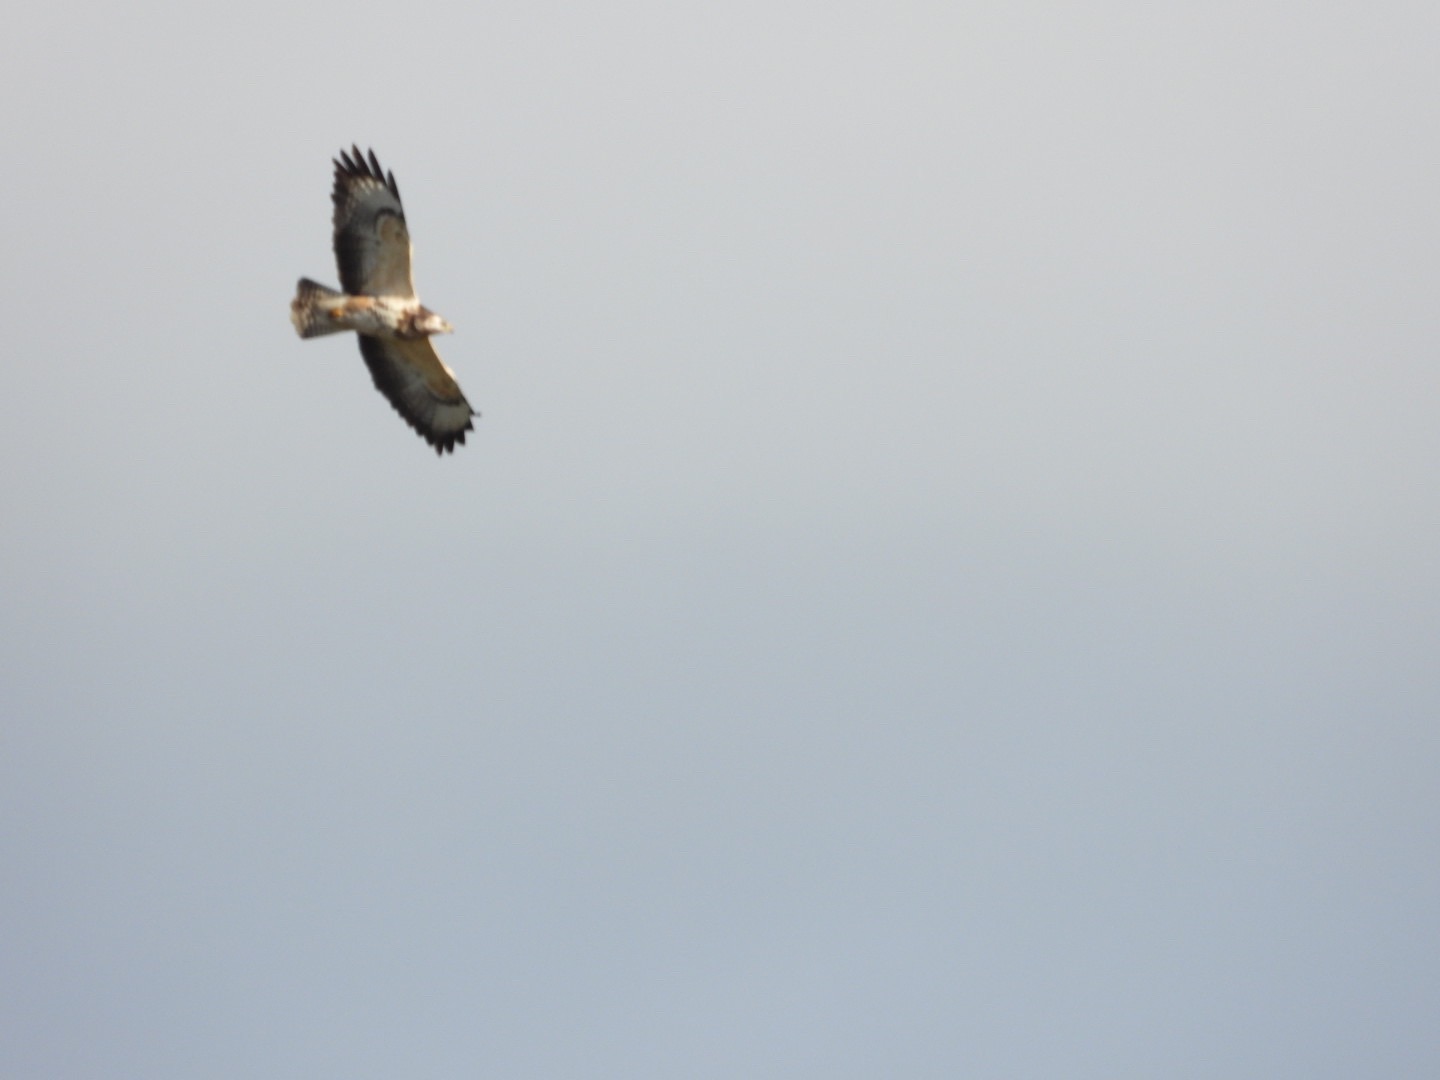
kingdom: Animalia
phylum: Chordata
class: Aves
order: Accipitriformes
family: Accipitridae
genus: Buteo
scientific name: Buteo buteo
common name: Musvåge
